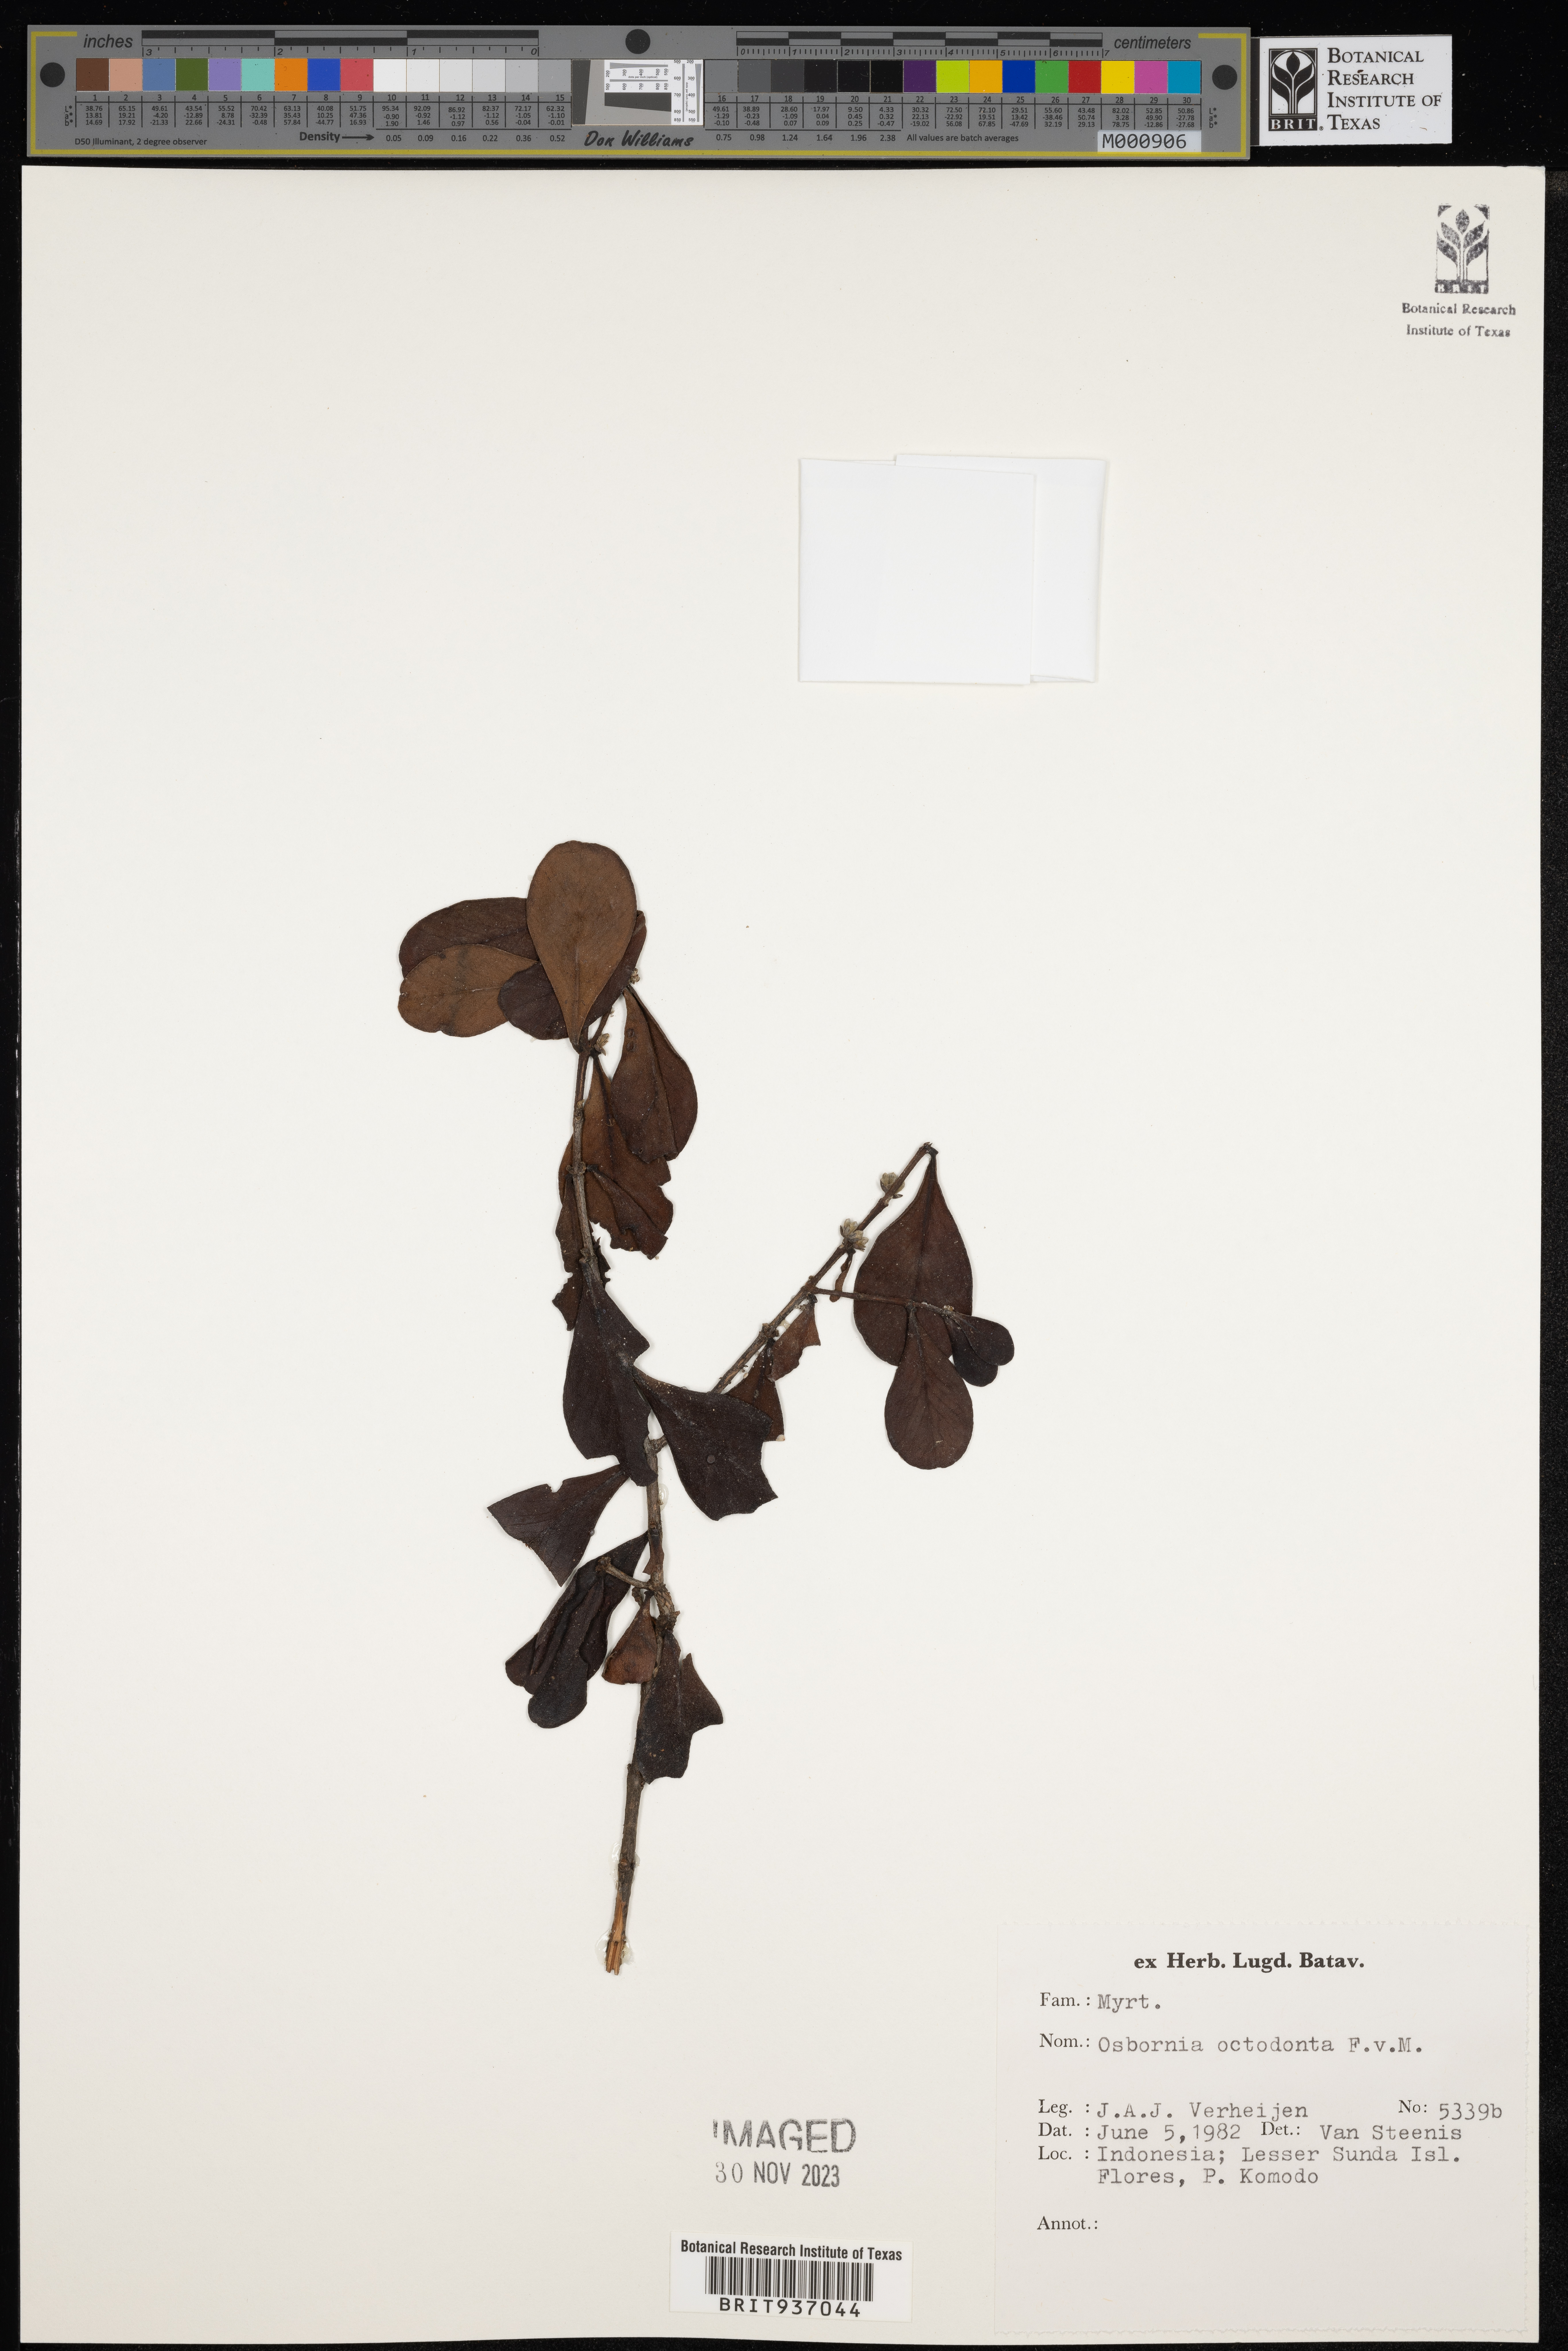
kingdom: Plantae
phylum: Tracheophyta
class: Magnoliopsida
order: Myrtales
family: Myrtaceae
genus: Osbornia
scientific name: Osbornia
